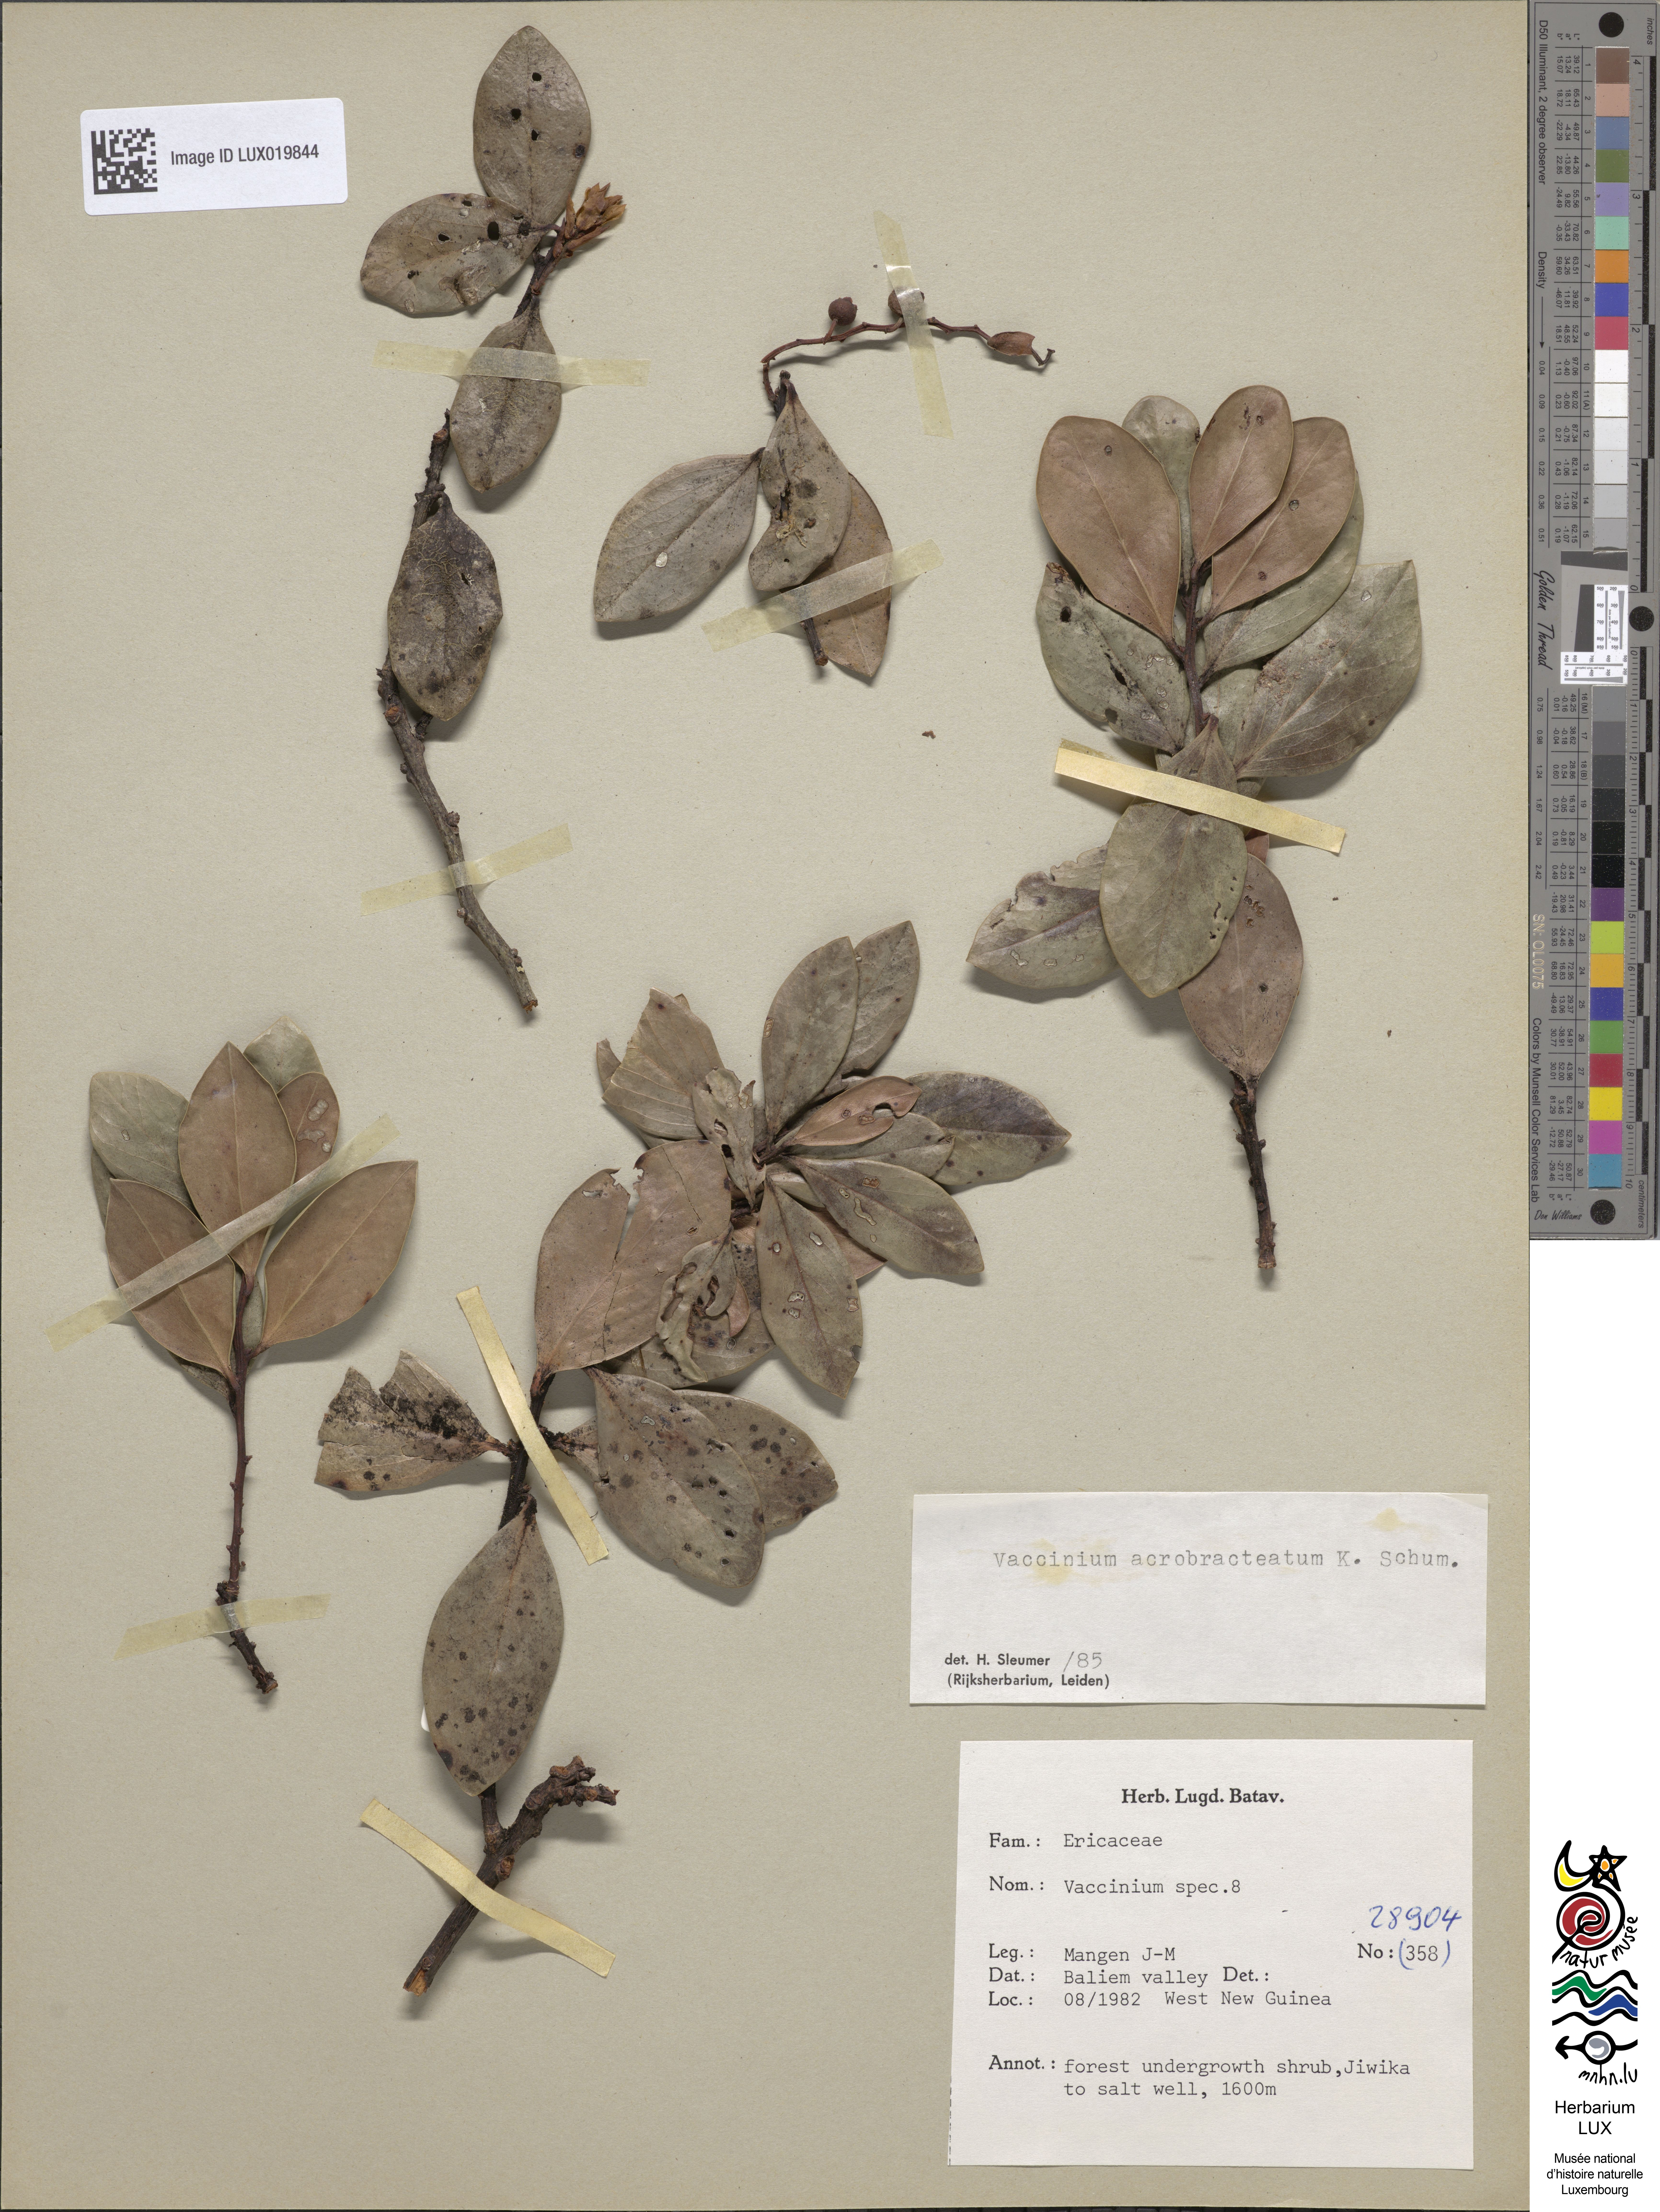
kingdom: Plantae
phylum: Tracheophyta
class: Magnoliopsida
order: Ericales
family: Ericaceae
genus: Vaccinium
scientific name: Vaccinium
